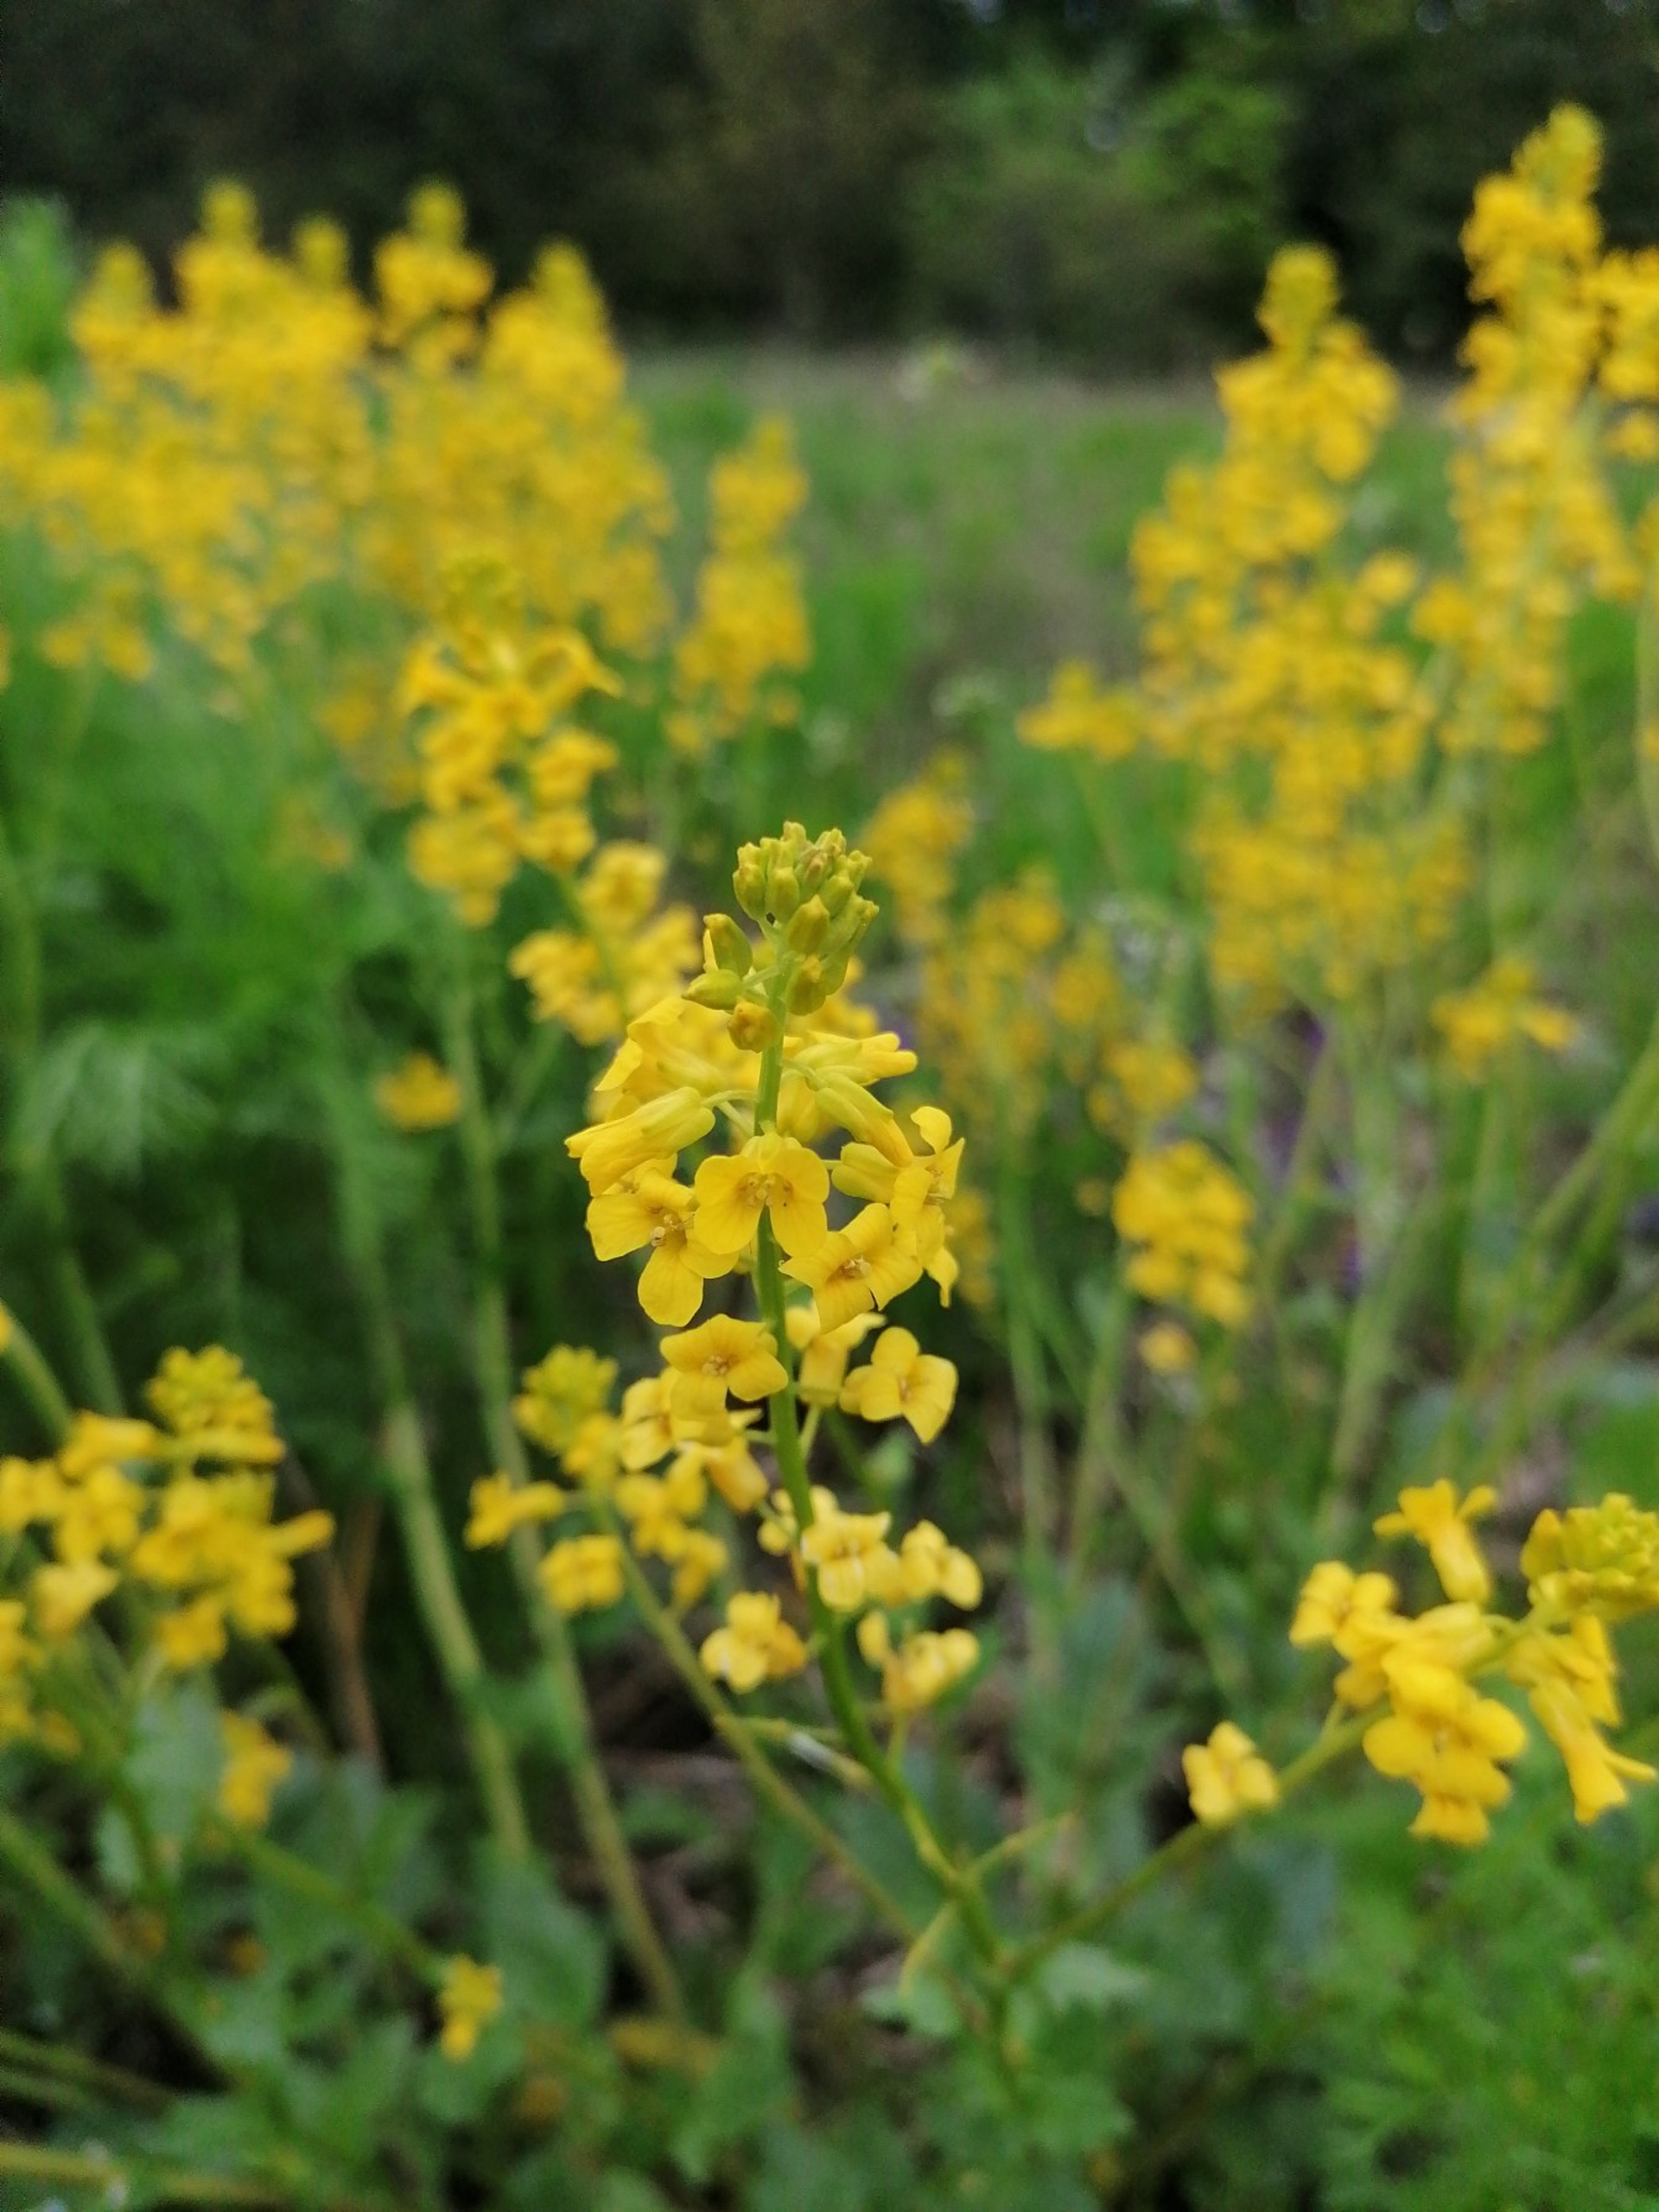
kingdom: Plantae
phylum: Tracheophyta
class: Magnoliopsida
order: Brassicales
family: Brassicaceae
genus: Barbarea
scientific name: Barbarea vulgaris
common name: Almindelig vinterkarse
